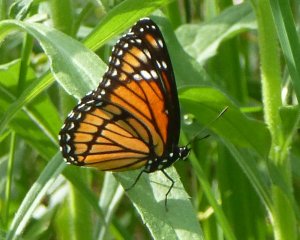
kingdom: Animalia
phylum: Arthropoda
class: Insecta
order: Lepidoptera
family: Nymphalidae
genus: Limenitis
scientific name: Limenitis archippus
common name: Viceroy
